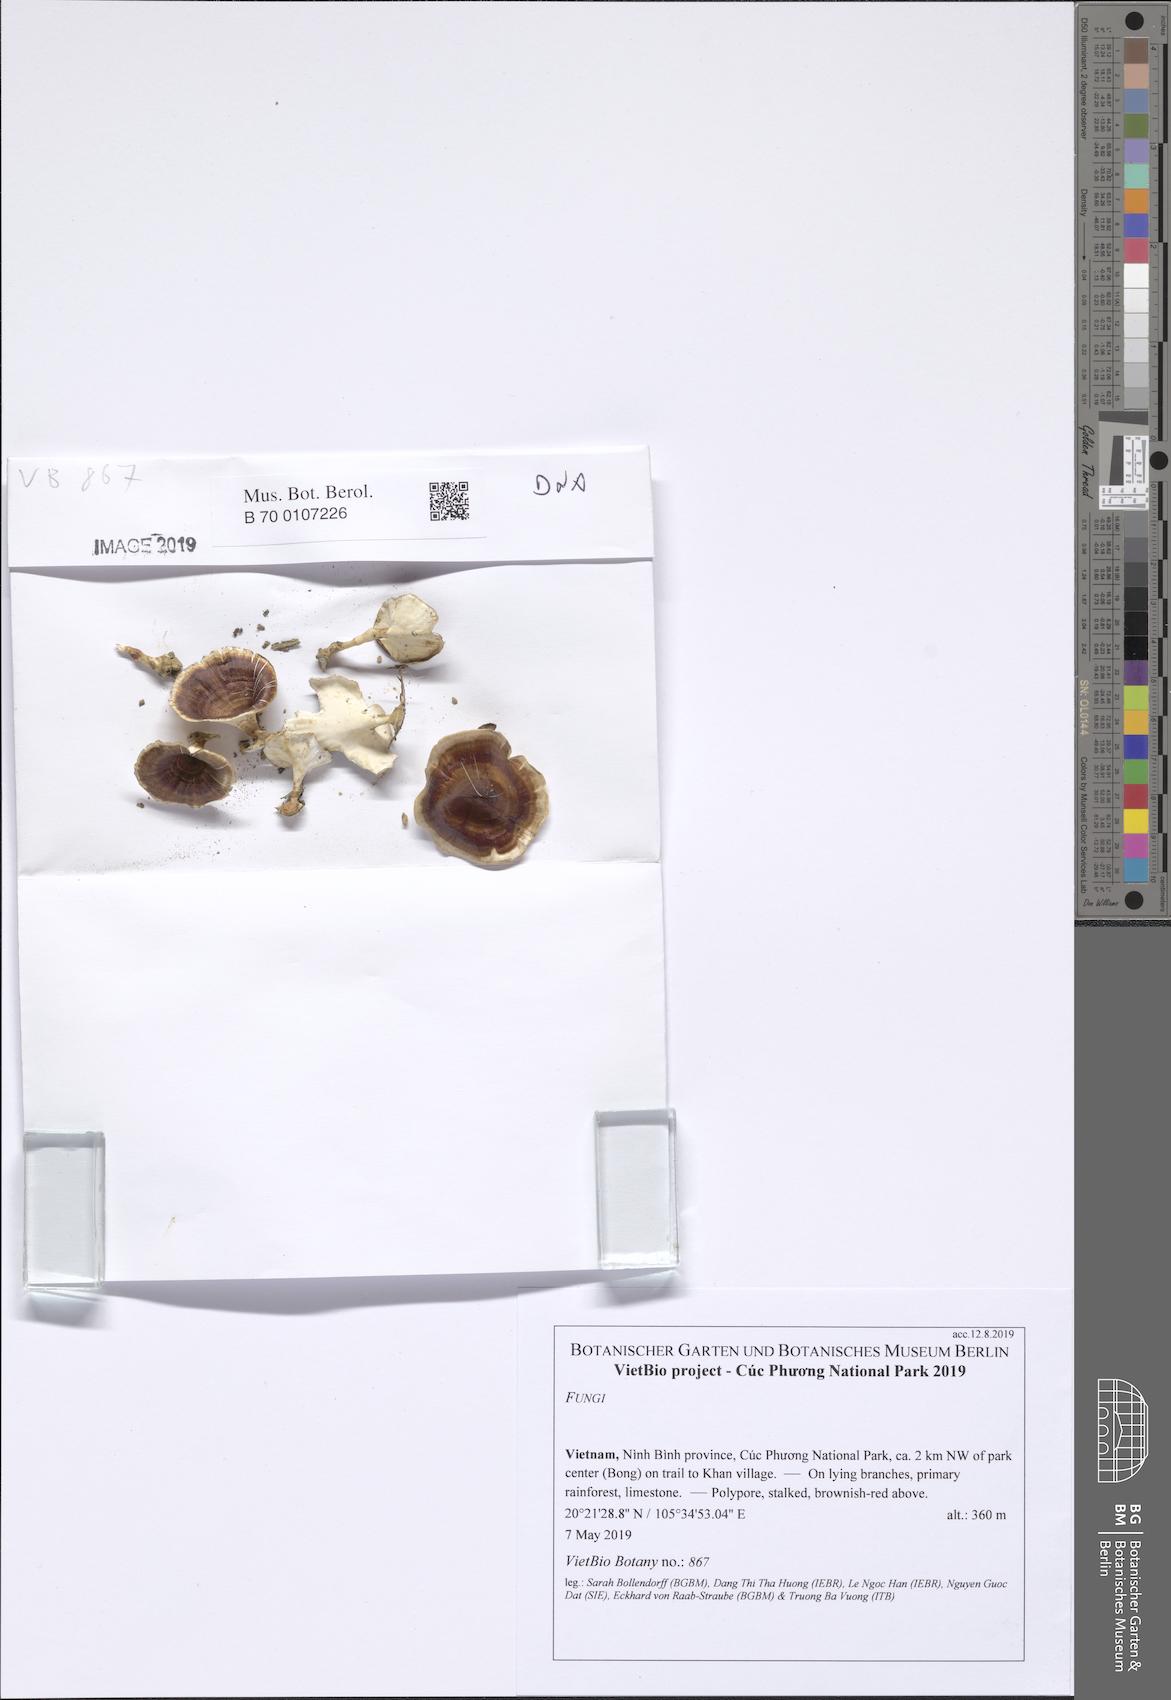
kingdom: Fungi
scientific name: Fungi
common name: Fungi
